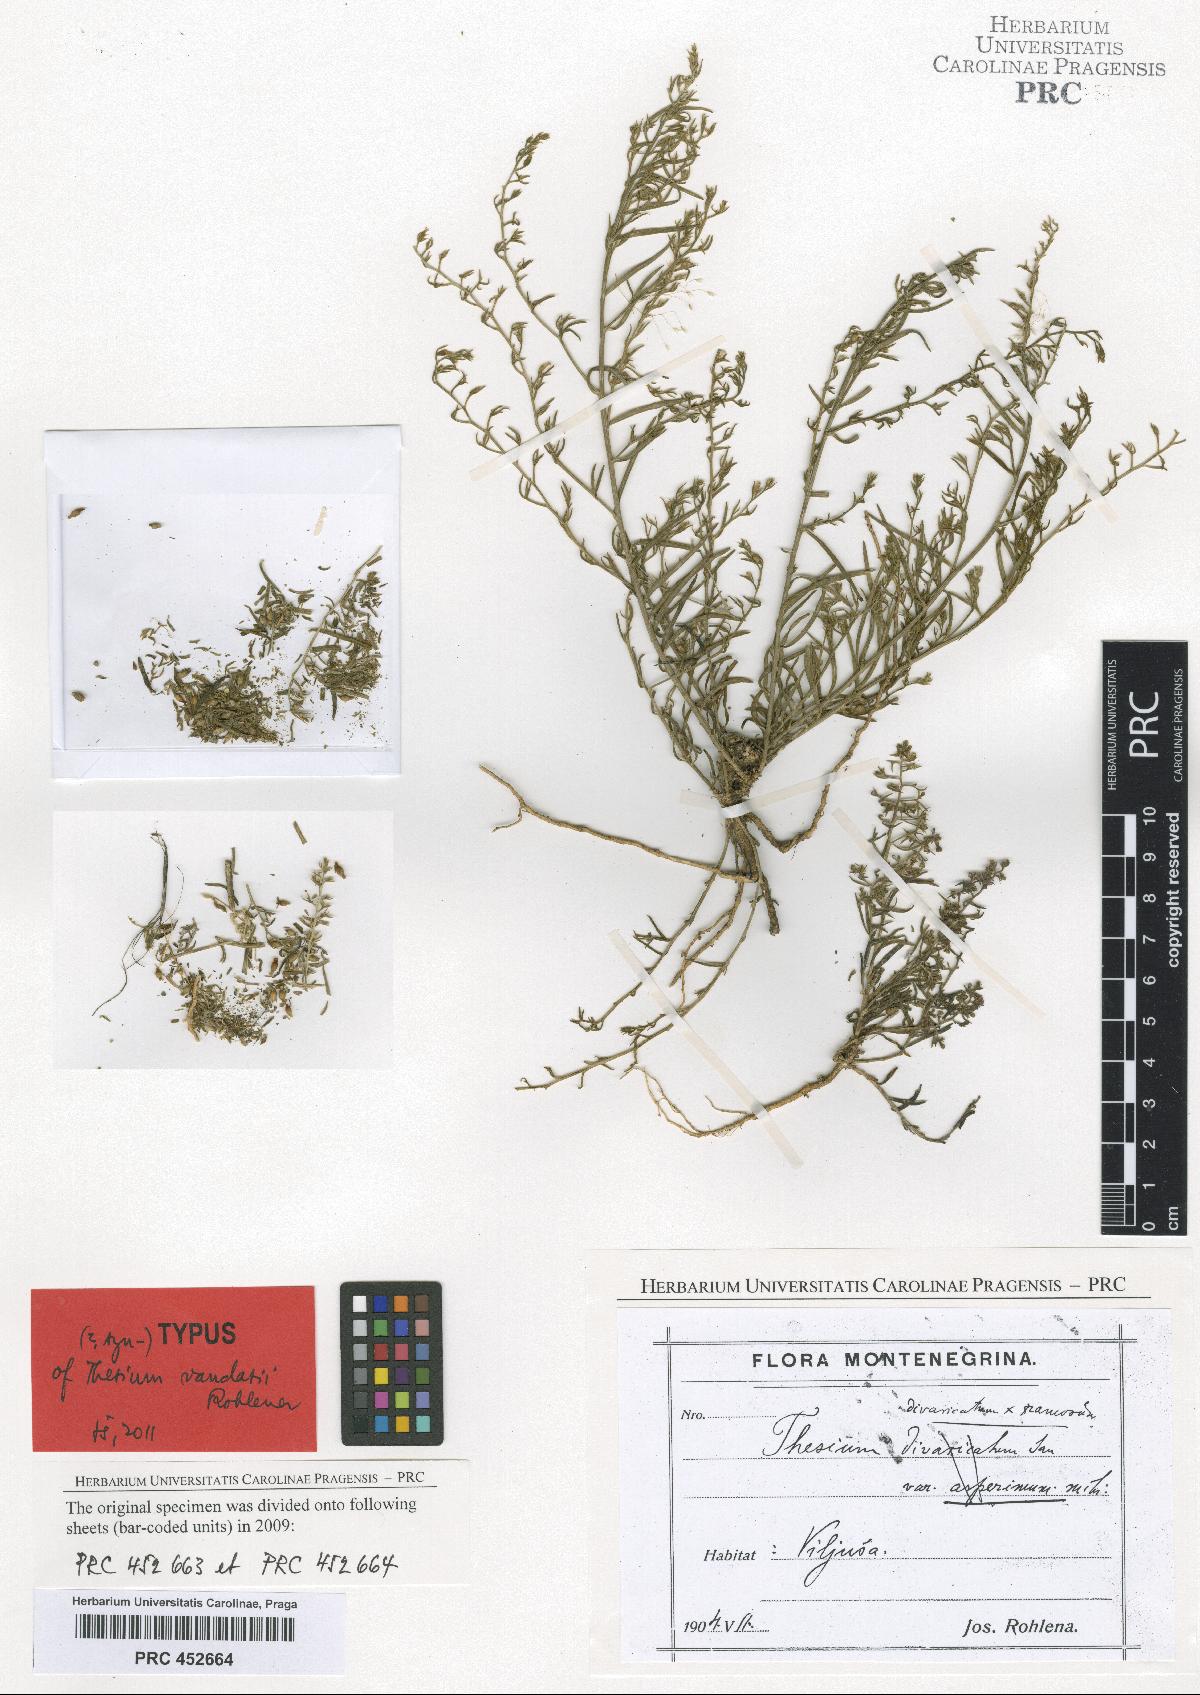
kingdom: Plantae
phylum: Tracheophyta
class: Magnoliopsida
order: Santalales
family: Thesiaceae
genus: Thesium
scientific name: Thesium vandasii
